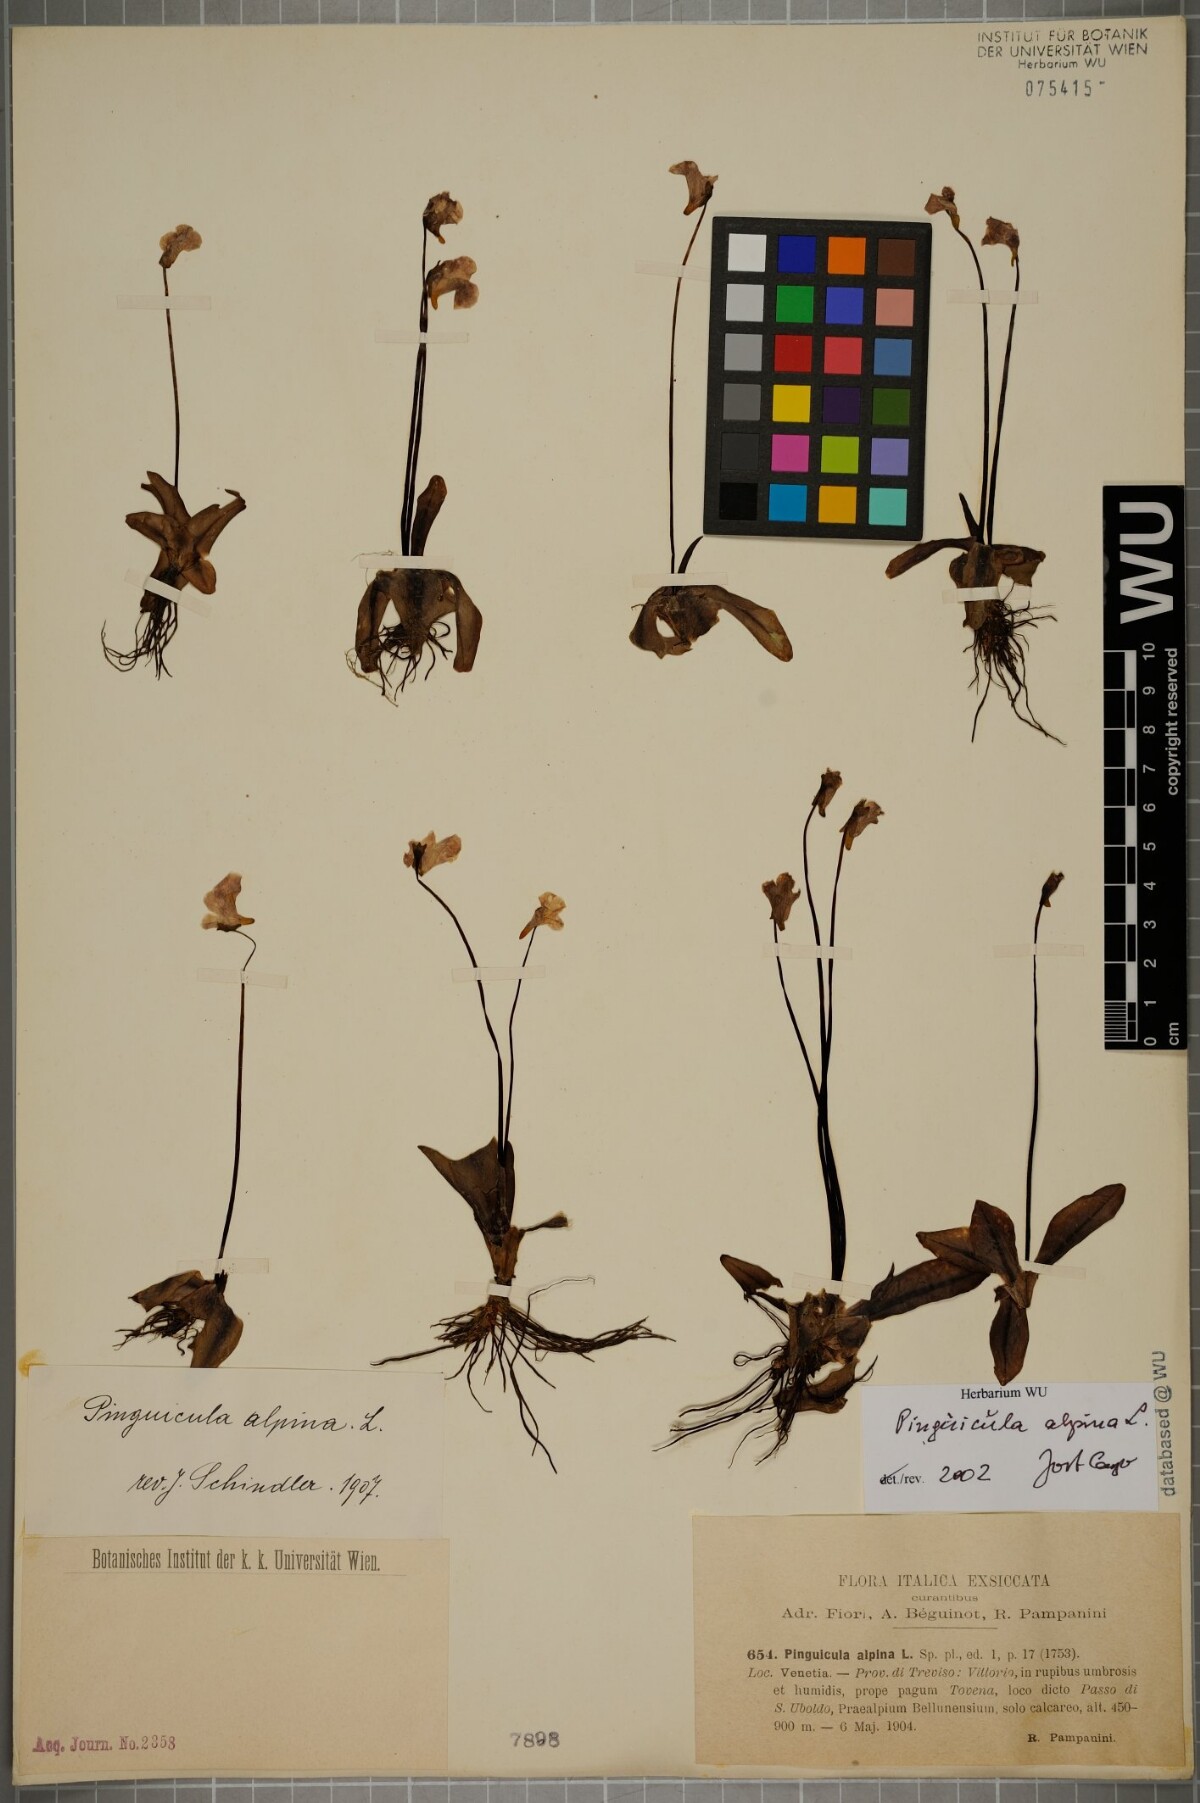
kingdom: Plantae
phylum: Tracheophyta
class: Magnoliopsida
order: Lamiales
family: Lentibulariaceae
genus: Pinguicula
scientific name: Pinguicula alpina
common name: Alpine butterwort
